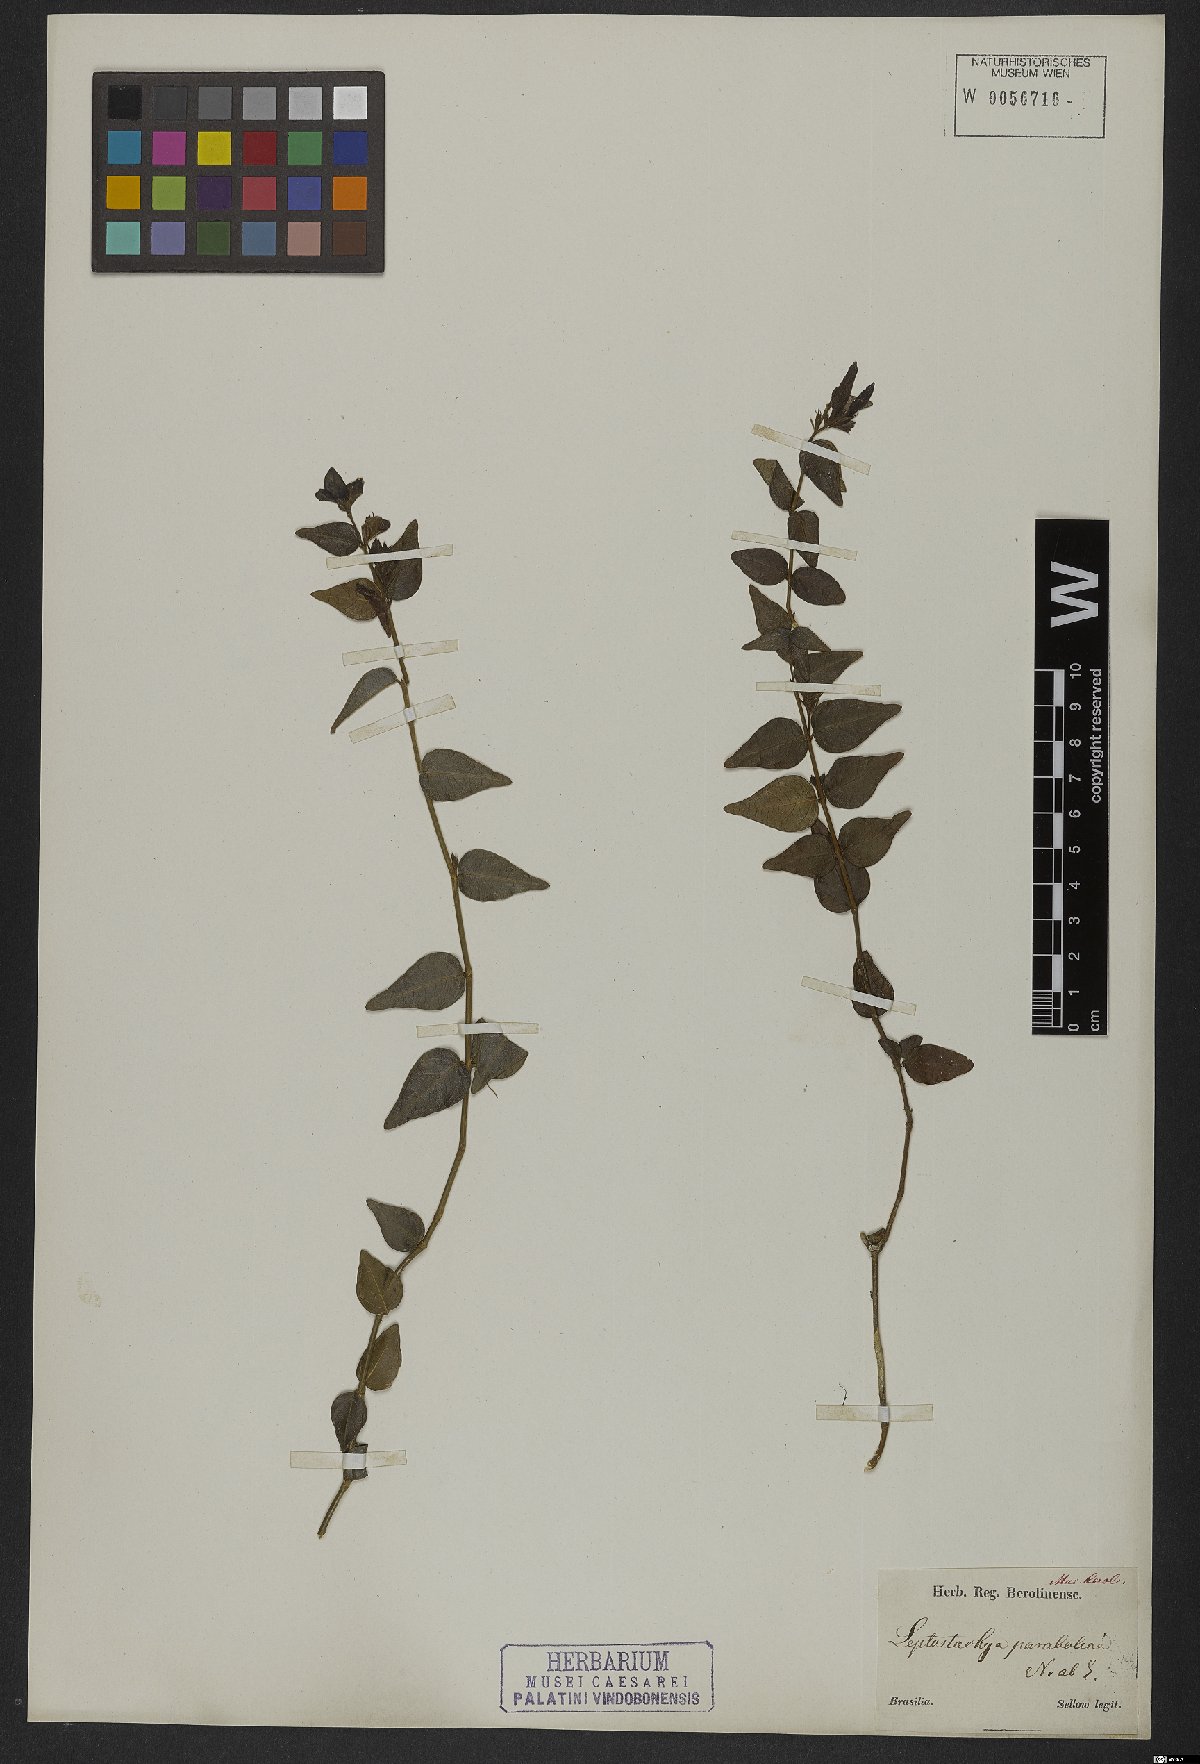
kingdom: Plantae
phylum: Tracheophyta
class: Magnoliopsida
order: Lamiales
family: Acanthaceae
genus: Justicia
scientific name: Justicia parabolica
